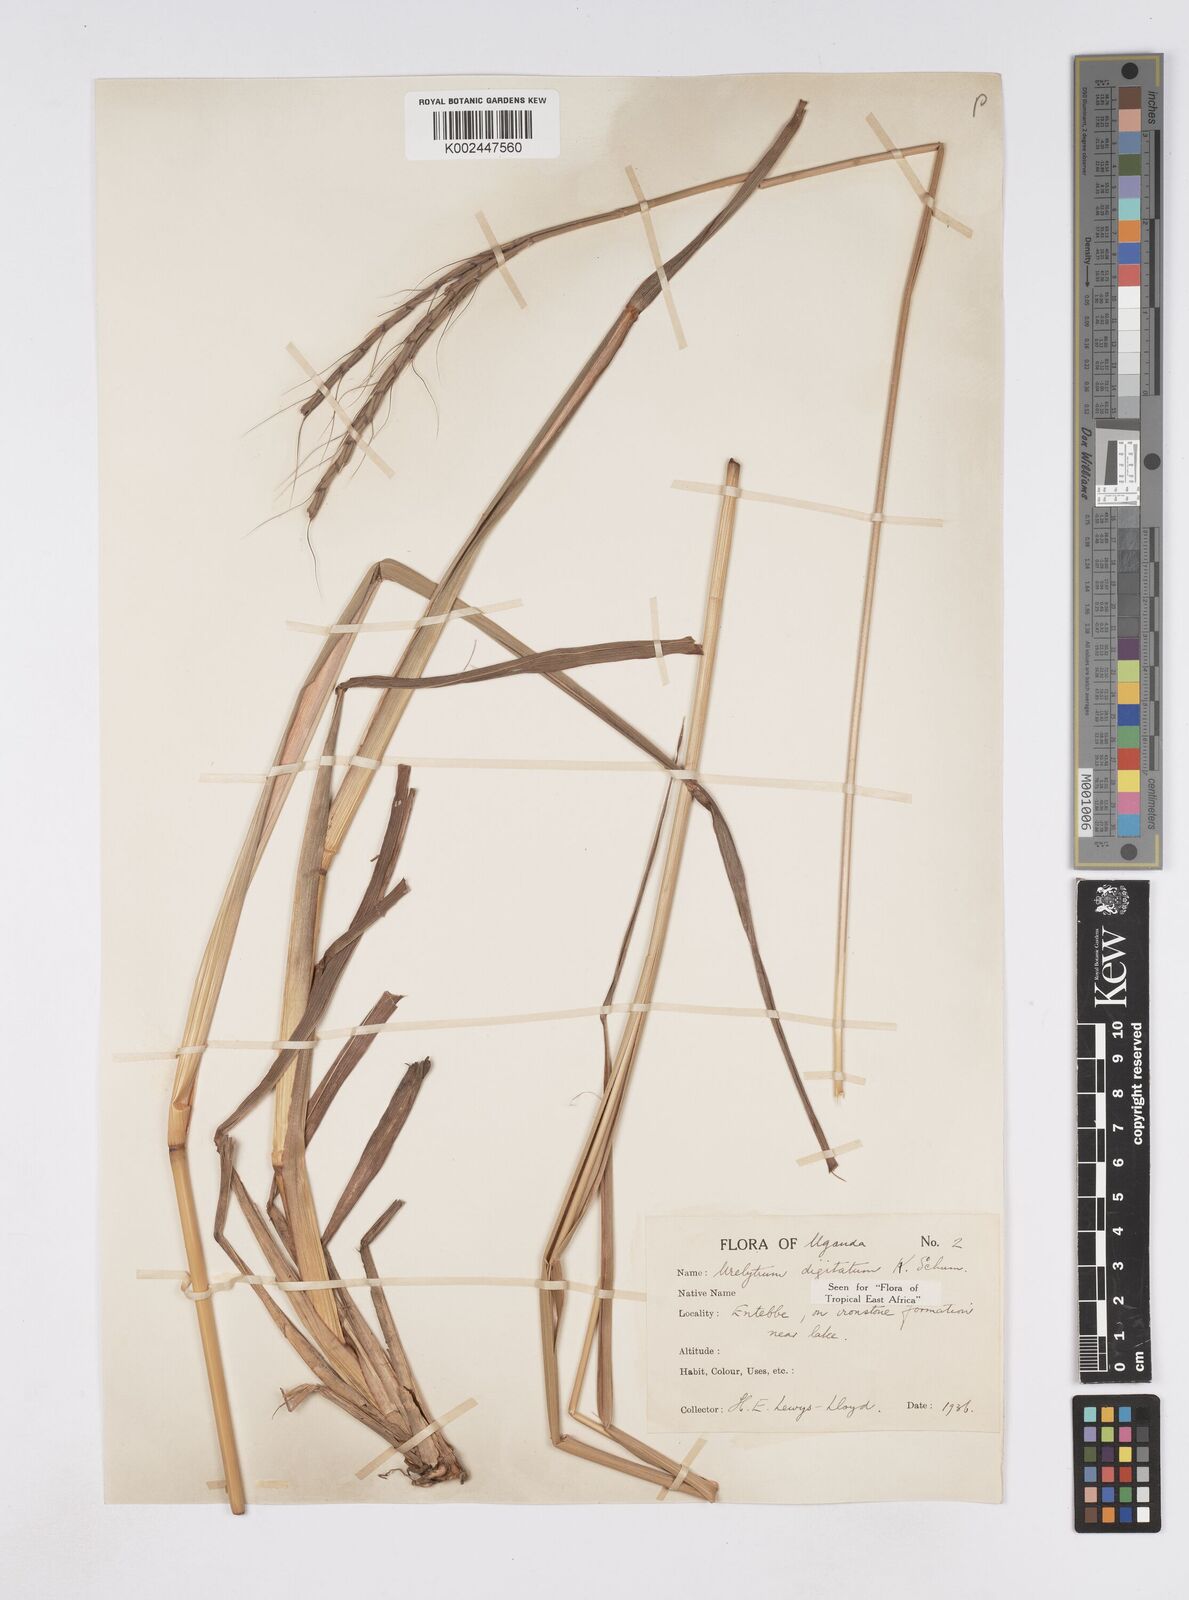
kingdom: Plantae
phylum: Tracheophyta
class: Liliopsida
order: Poales
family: Poaceae
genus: Urelytrum
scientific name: Urelytrum digitatum
